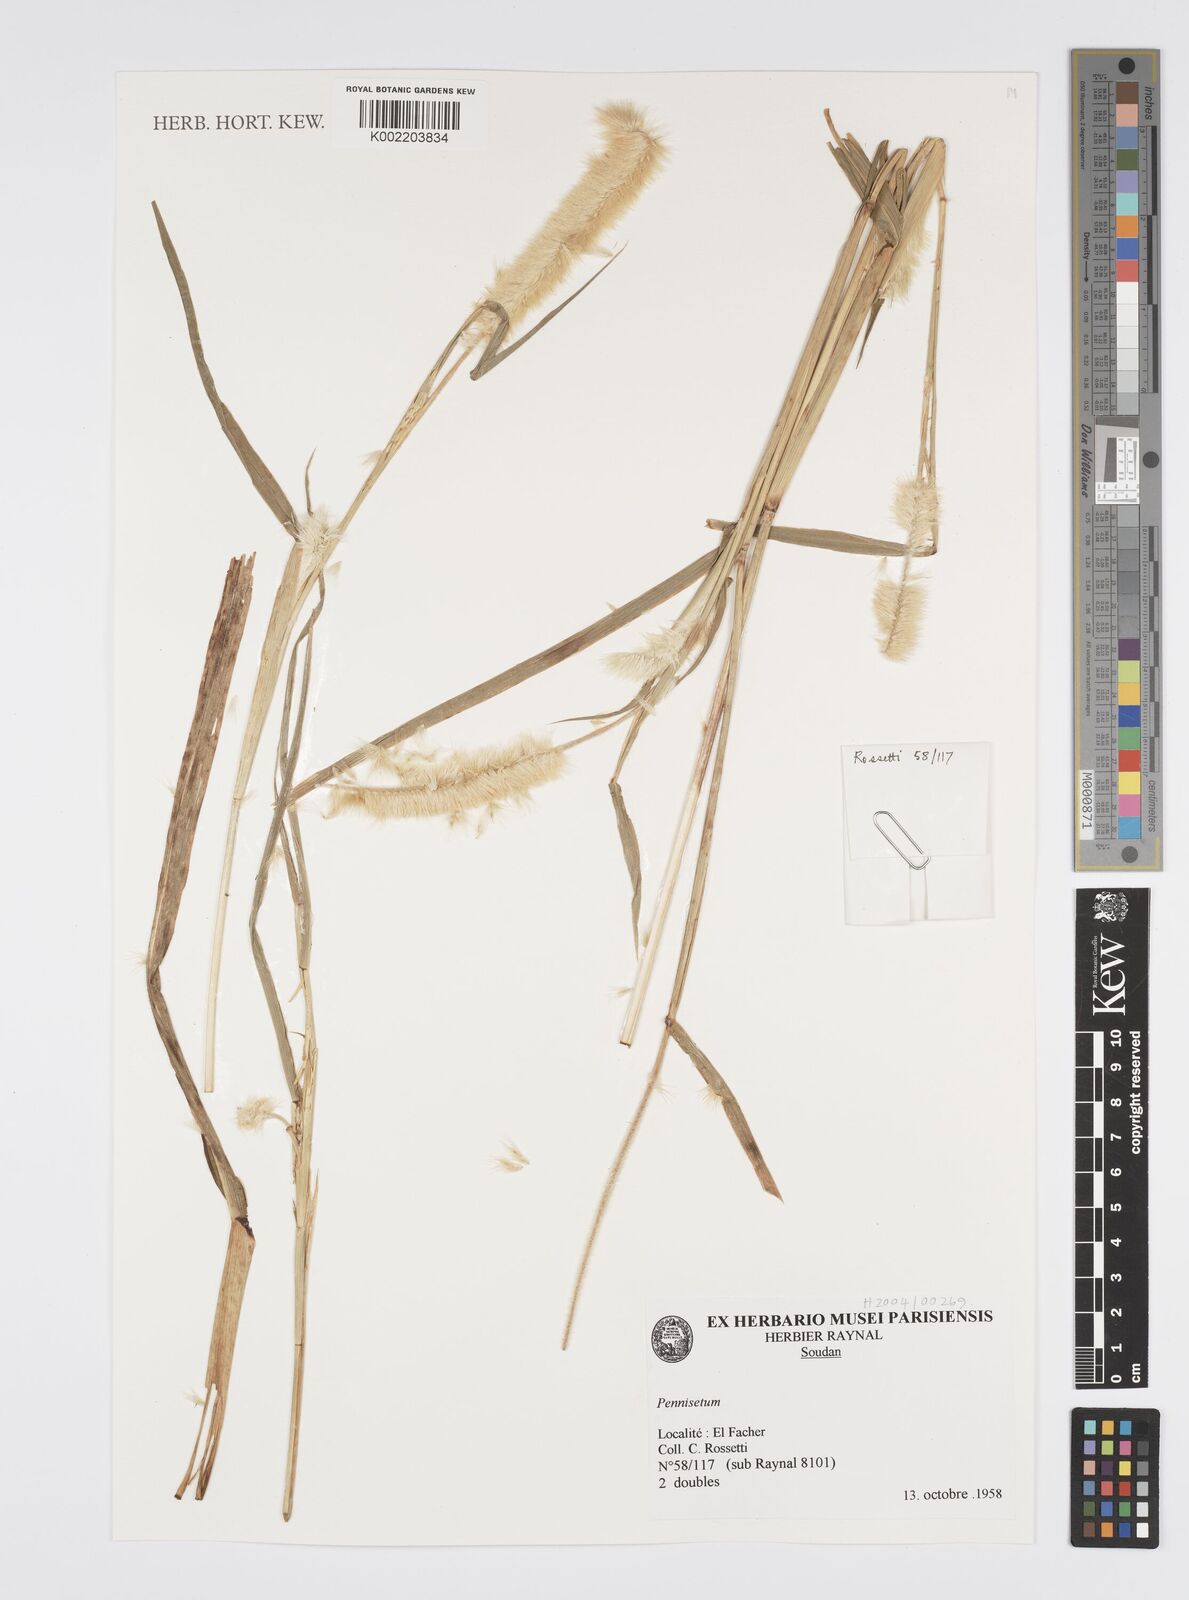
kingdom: Plantae
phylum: Tracheophyta
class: Liliopsida
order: Poales
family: Poaceae
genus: Cenchrus
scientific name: Cenchrus Pennisetum spec
